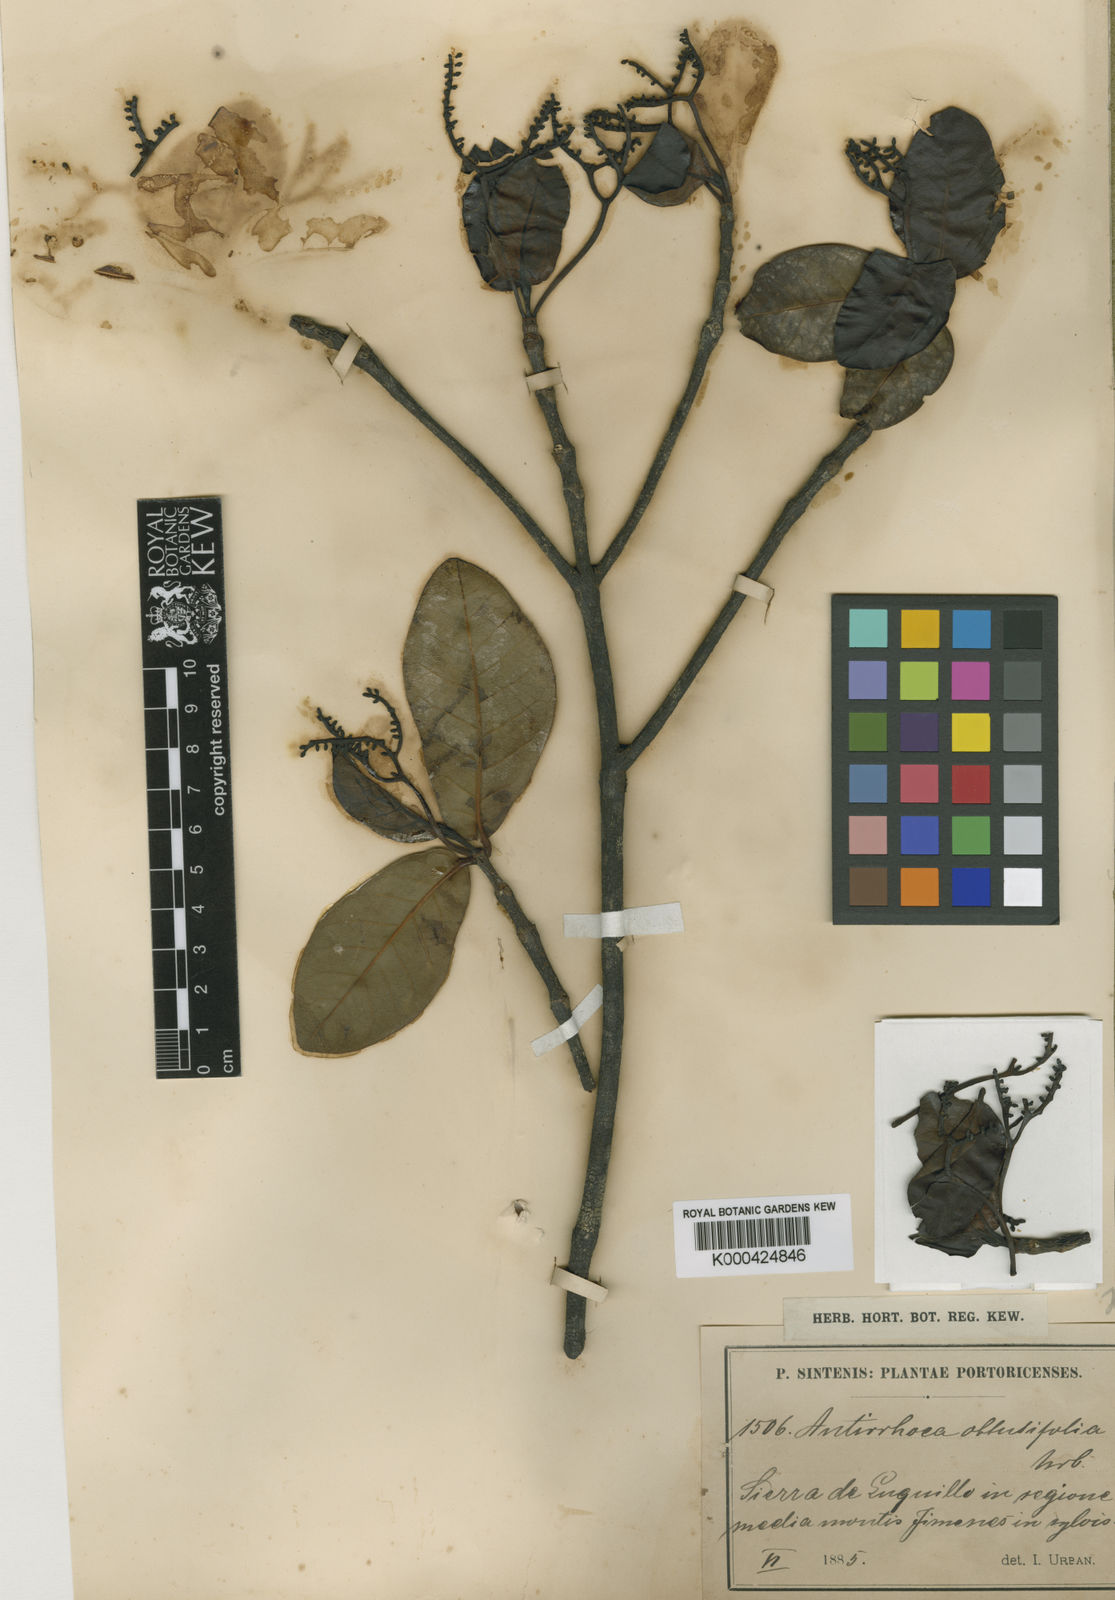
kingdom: Plantae
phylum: Tracheophyta
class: Magnoliopsida
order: Gentianales
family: Rubiaceae
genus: Stenostomum
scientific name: Stenostomum obtusifolium
